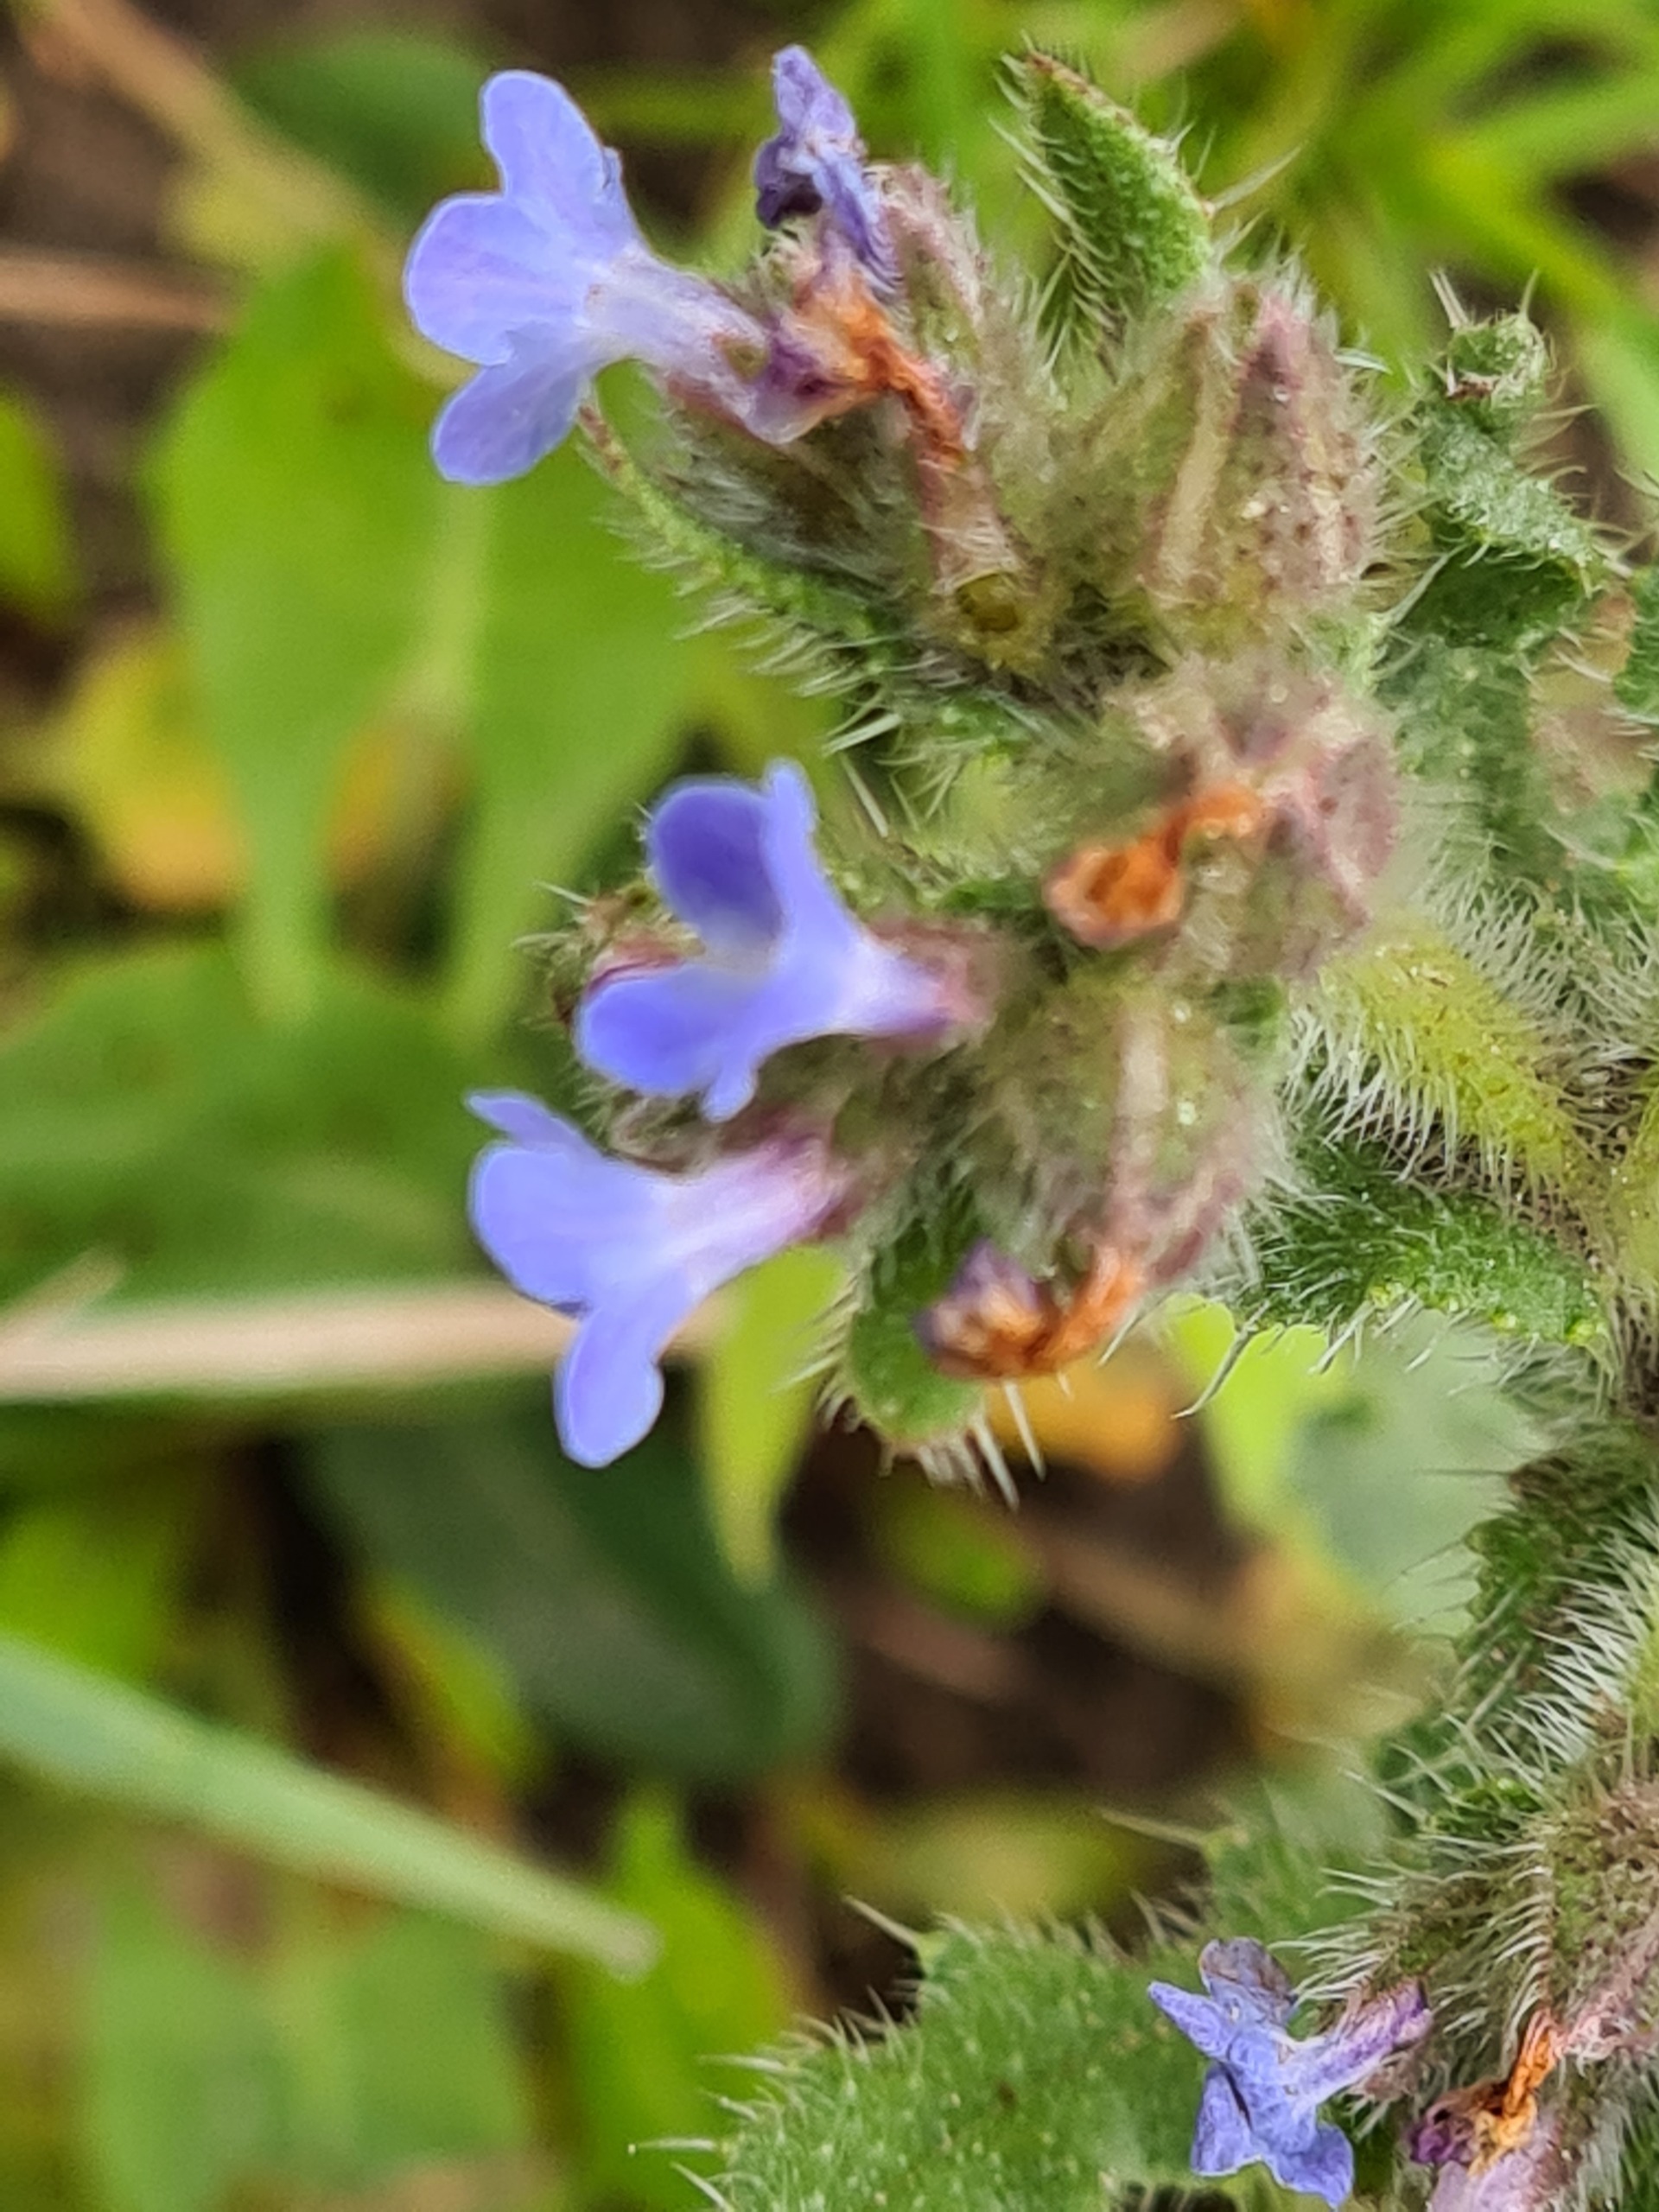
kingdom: Plantae
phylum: Tracheophyta
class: Magnoliopsida
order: Boraginales
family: Boraginaceae
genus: Lycopsis
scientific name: Lycopsis arvensis
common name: Krumhals
